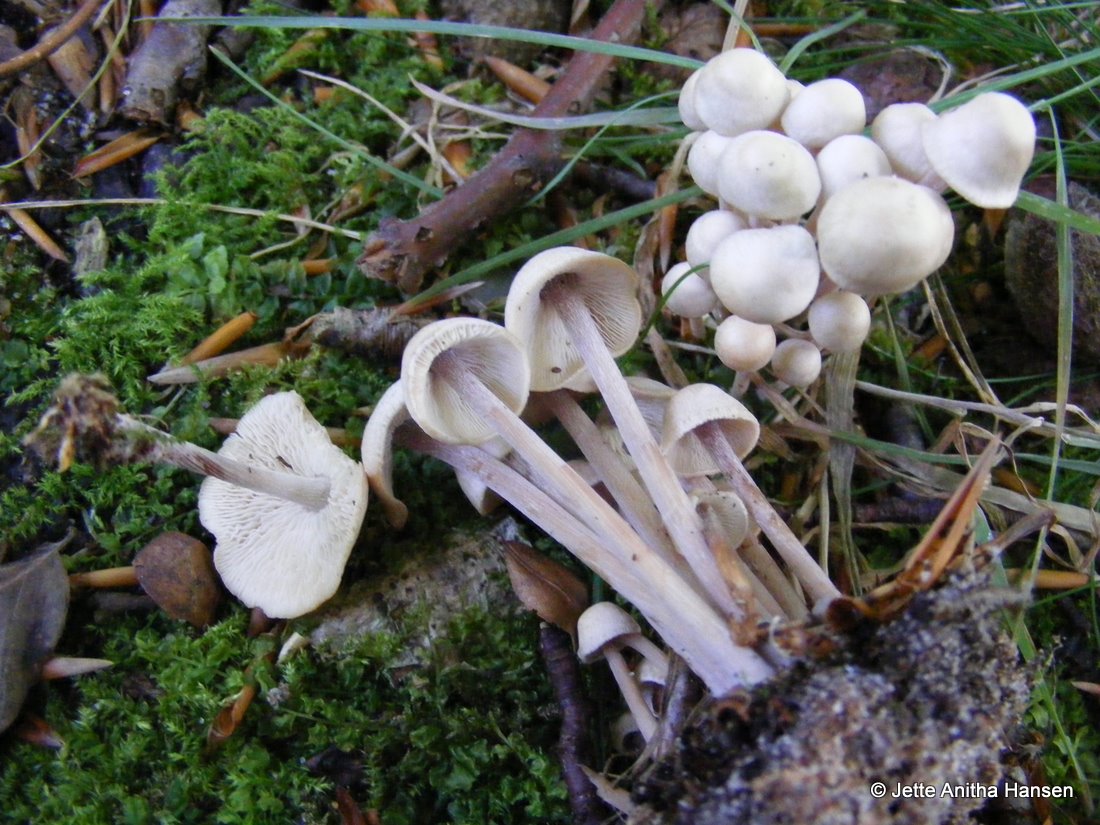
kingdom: Fungi
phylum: Basidiomycota
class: Agaricomycetes
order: Agaricales
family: Omphalotaceae
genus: Collybiopsis
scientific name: Collybiopsis confluens
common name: knippe-fladhat
